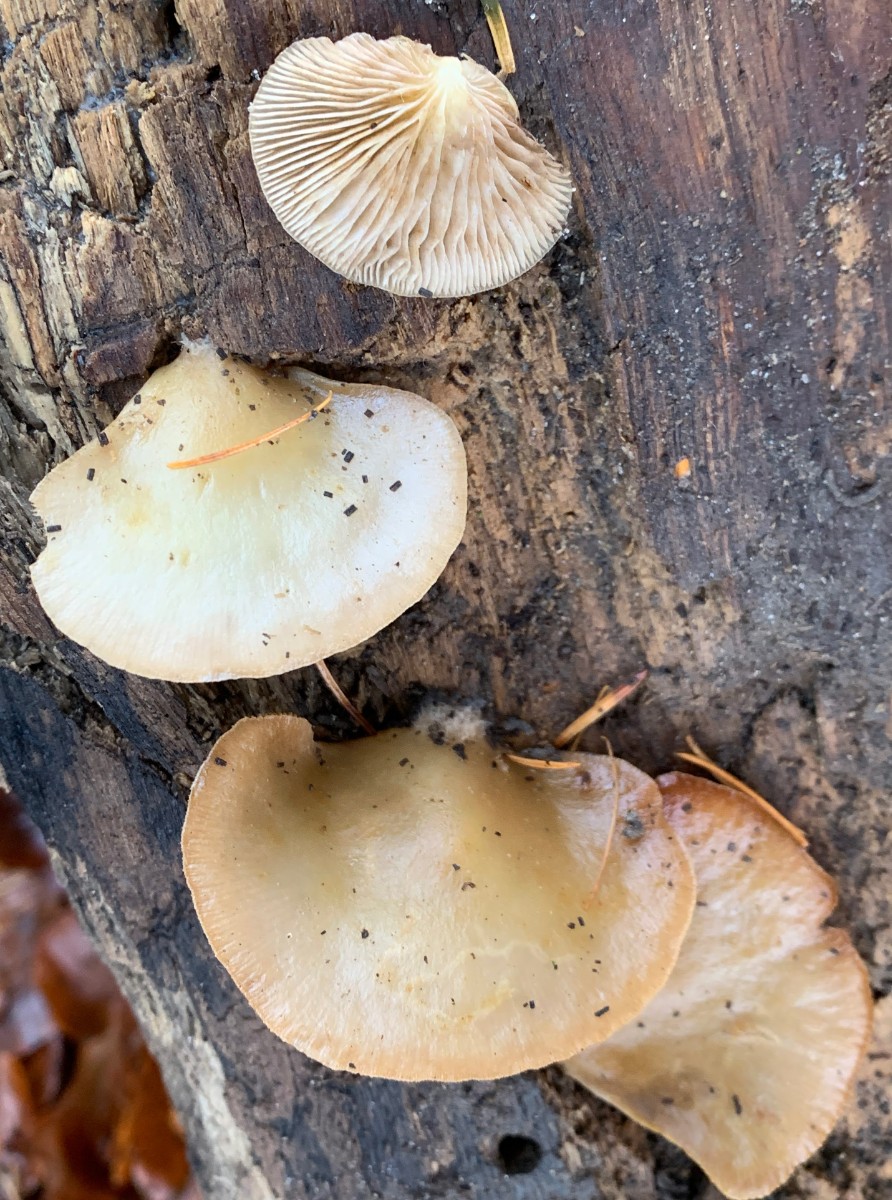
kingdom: Fungi
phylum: Basidiomycota
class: Agaricomycetes
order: Agaricales
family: Crepidotaceae
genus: Crepidotus
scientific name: Crepidotus mollis
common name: blød muslingesvamp
